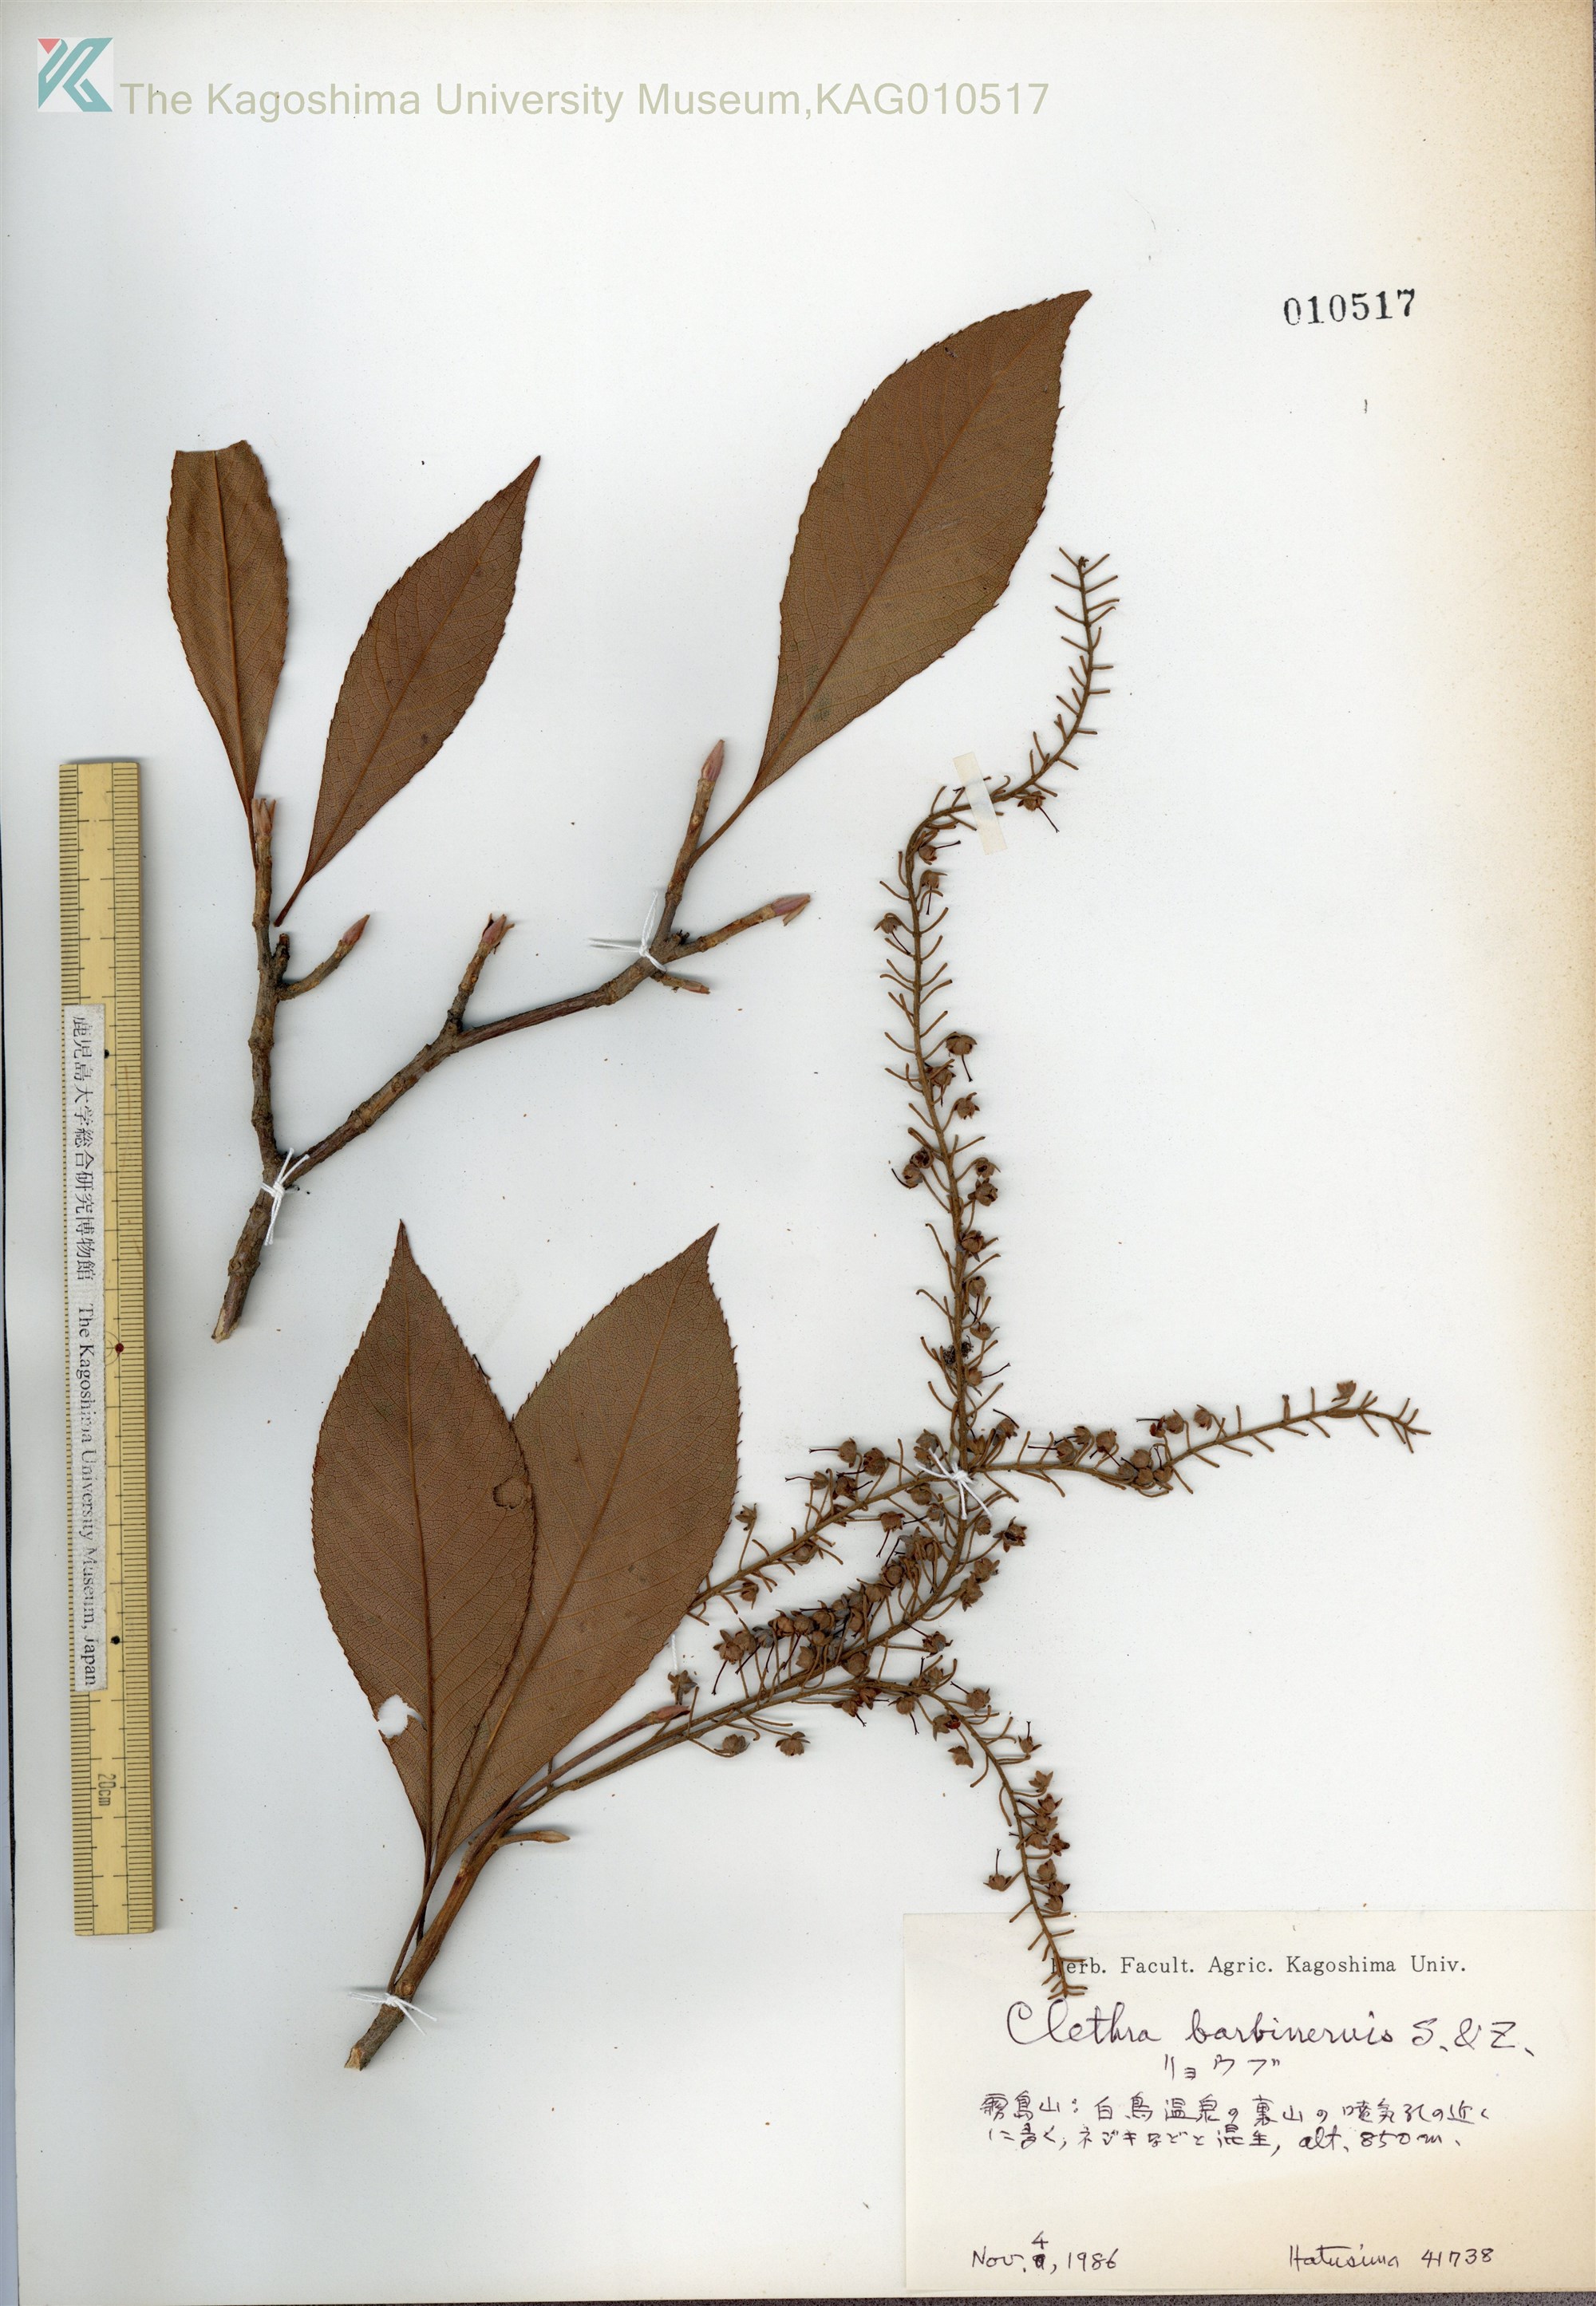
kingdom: Plantae
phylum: Tracheophyta
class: Magnoliopsida
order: Ericales
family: Clethraceae
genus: Clethra
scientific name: Clethra barbinervis
